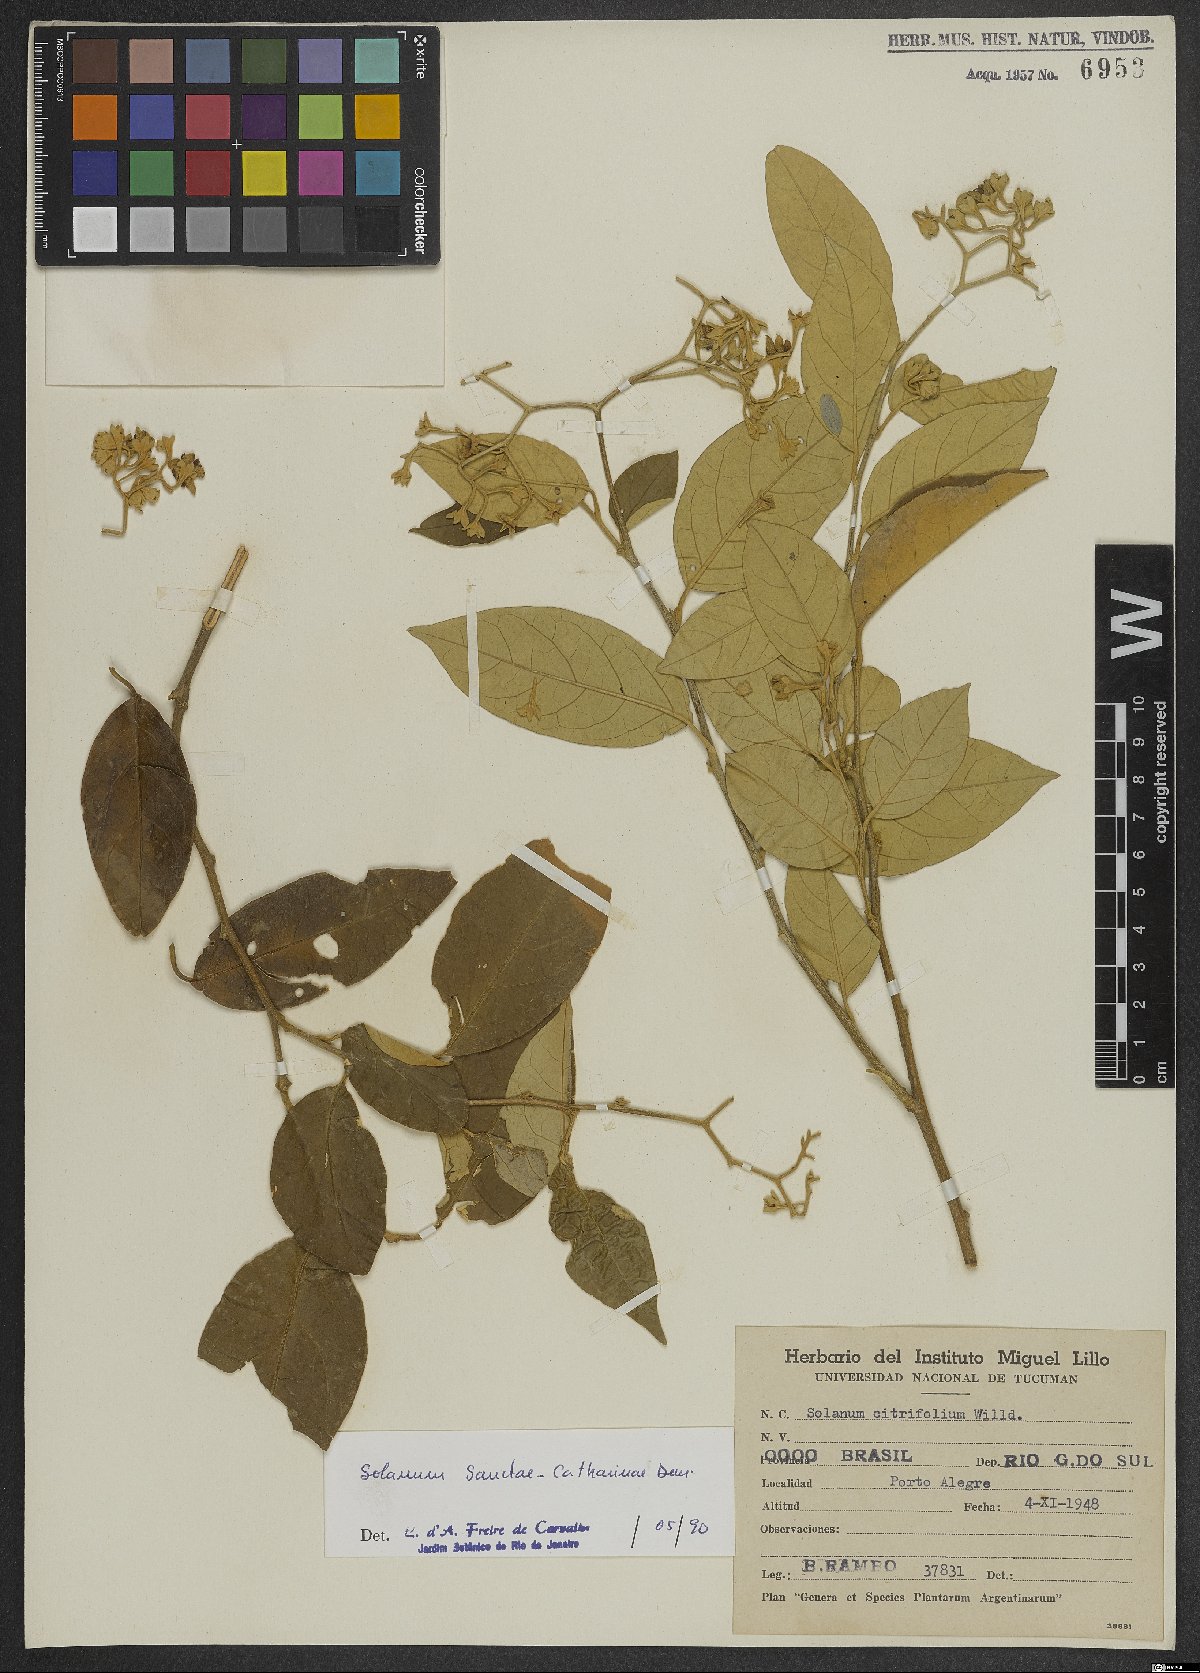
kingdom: Plantae
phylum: Tracheophyta
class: Magnoliopsida
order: Solanales
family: Solanaceae
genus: Solanum
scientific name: Solanum sanctae-catharinae
